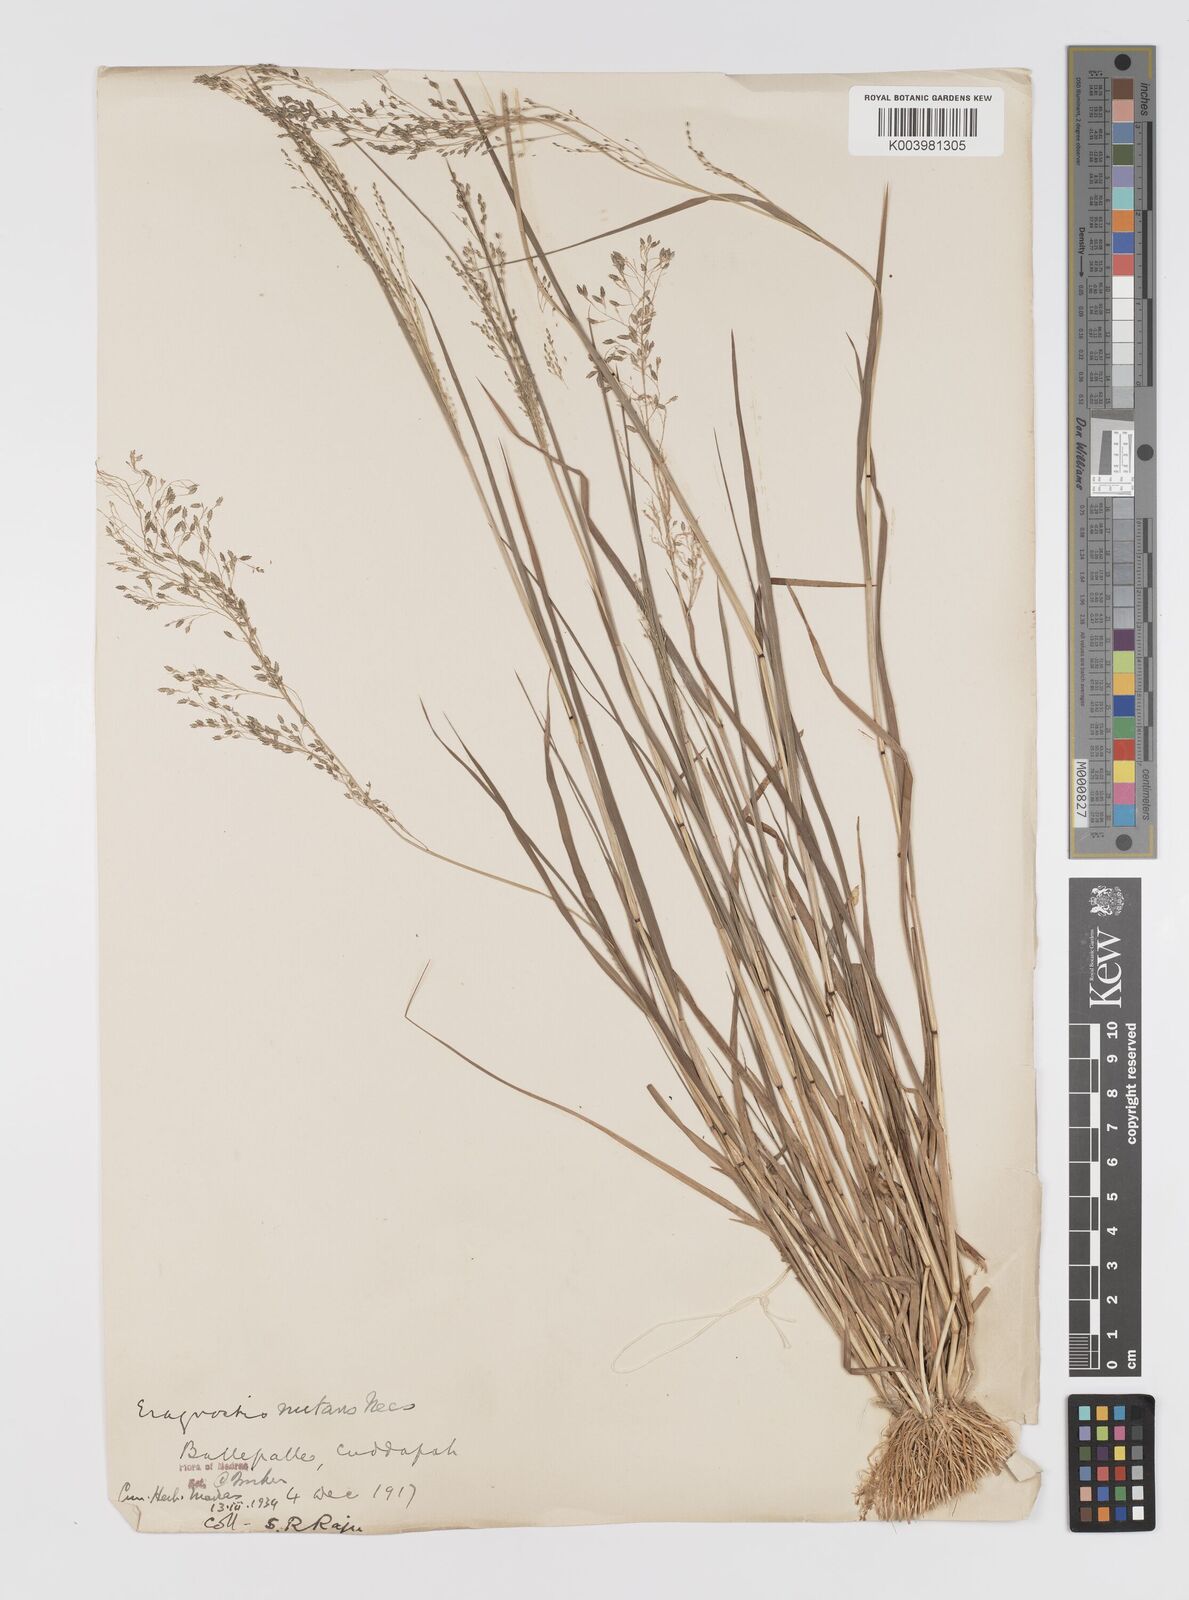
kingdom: Plantae
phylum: Tracheophyta
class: Liliopsida
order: Poales
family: Poaceae
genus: Eragrostis
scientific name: Eragrostis gangetica
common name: Slimflower lovegrass
